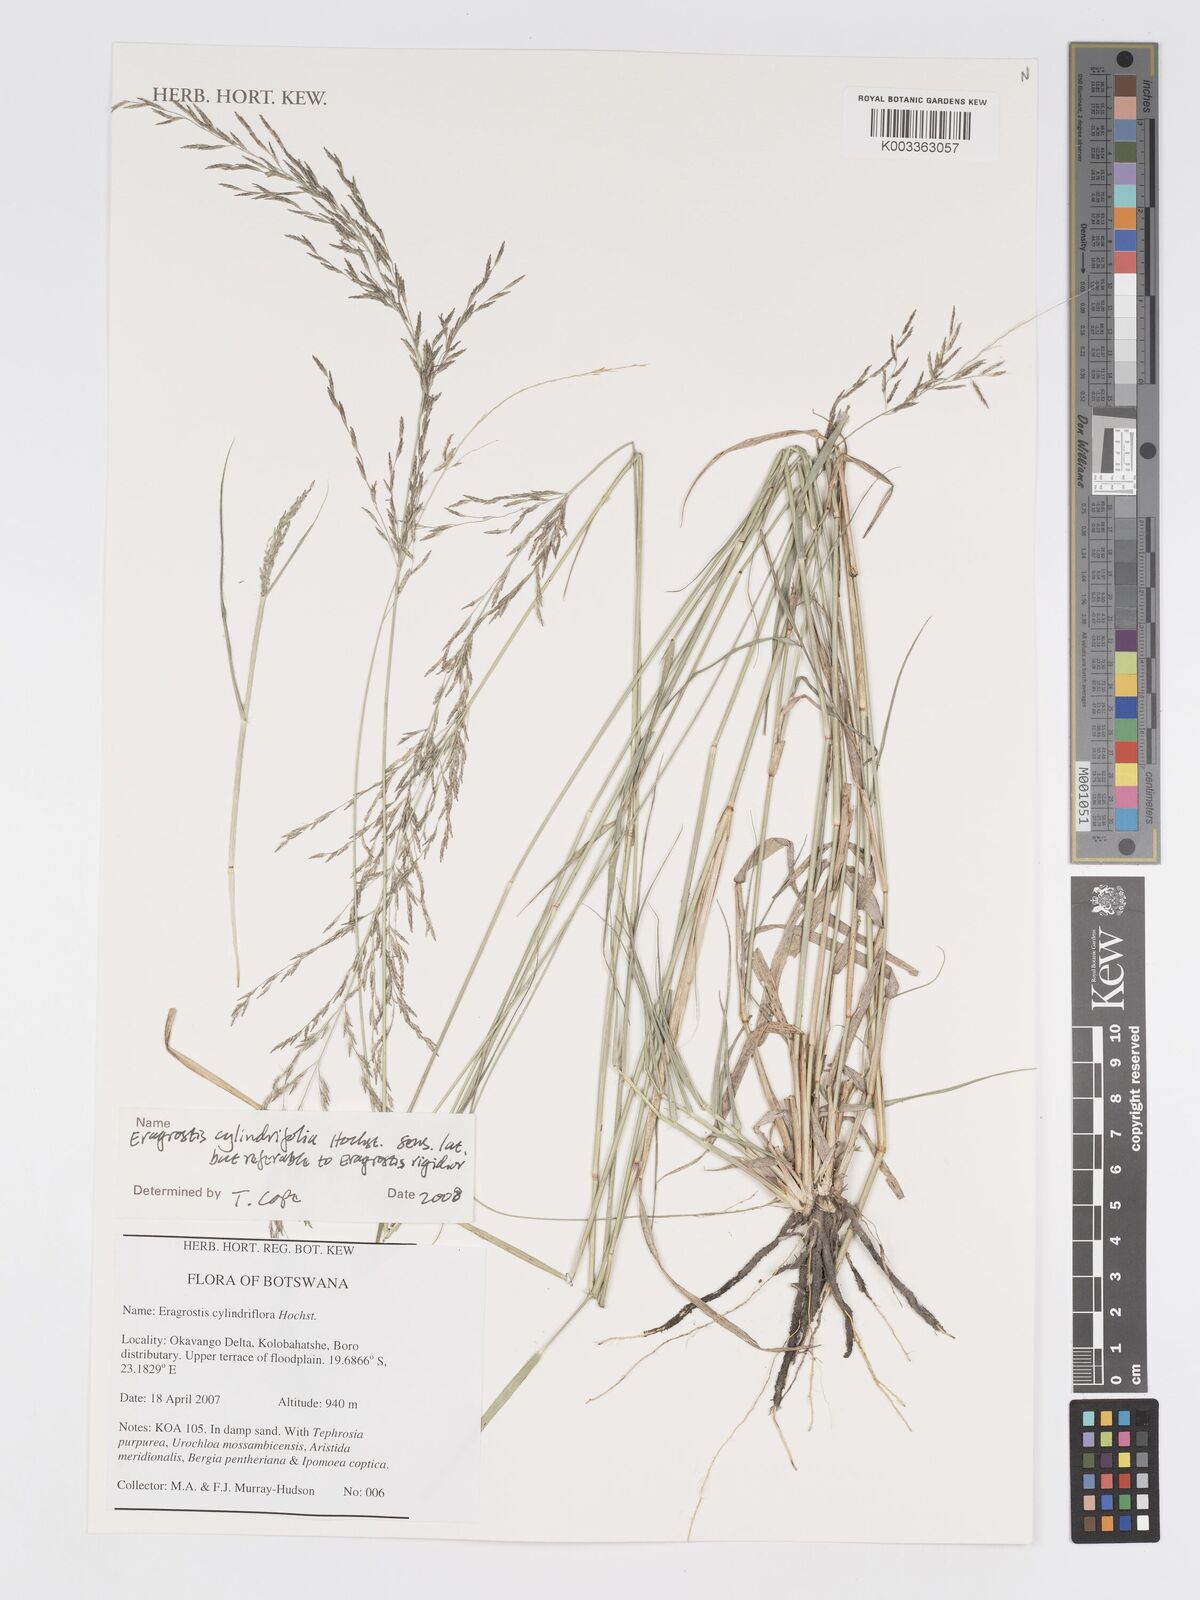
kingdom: Plantae
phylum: Tracheophyta
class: Liliopsida
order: Poales
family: Poaceae
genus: Eragrostis
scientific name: Eragrostis cylindriflora
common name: Cylinderflower lovegrass
